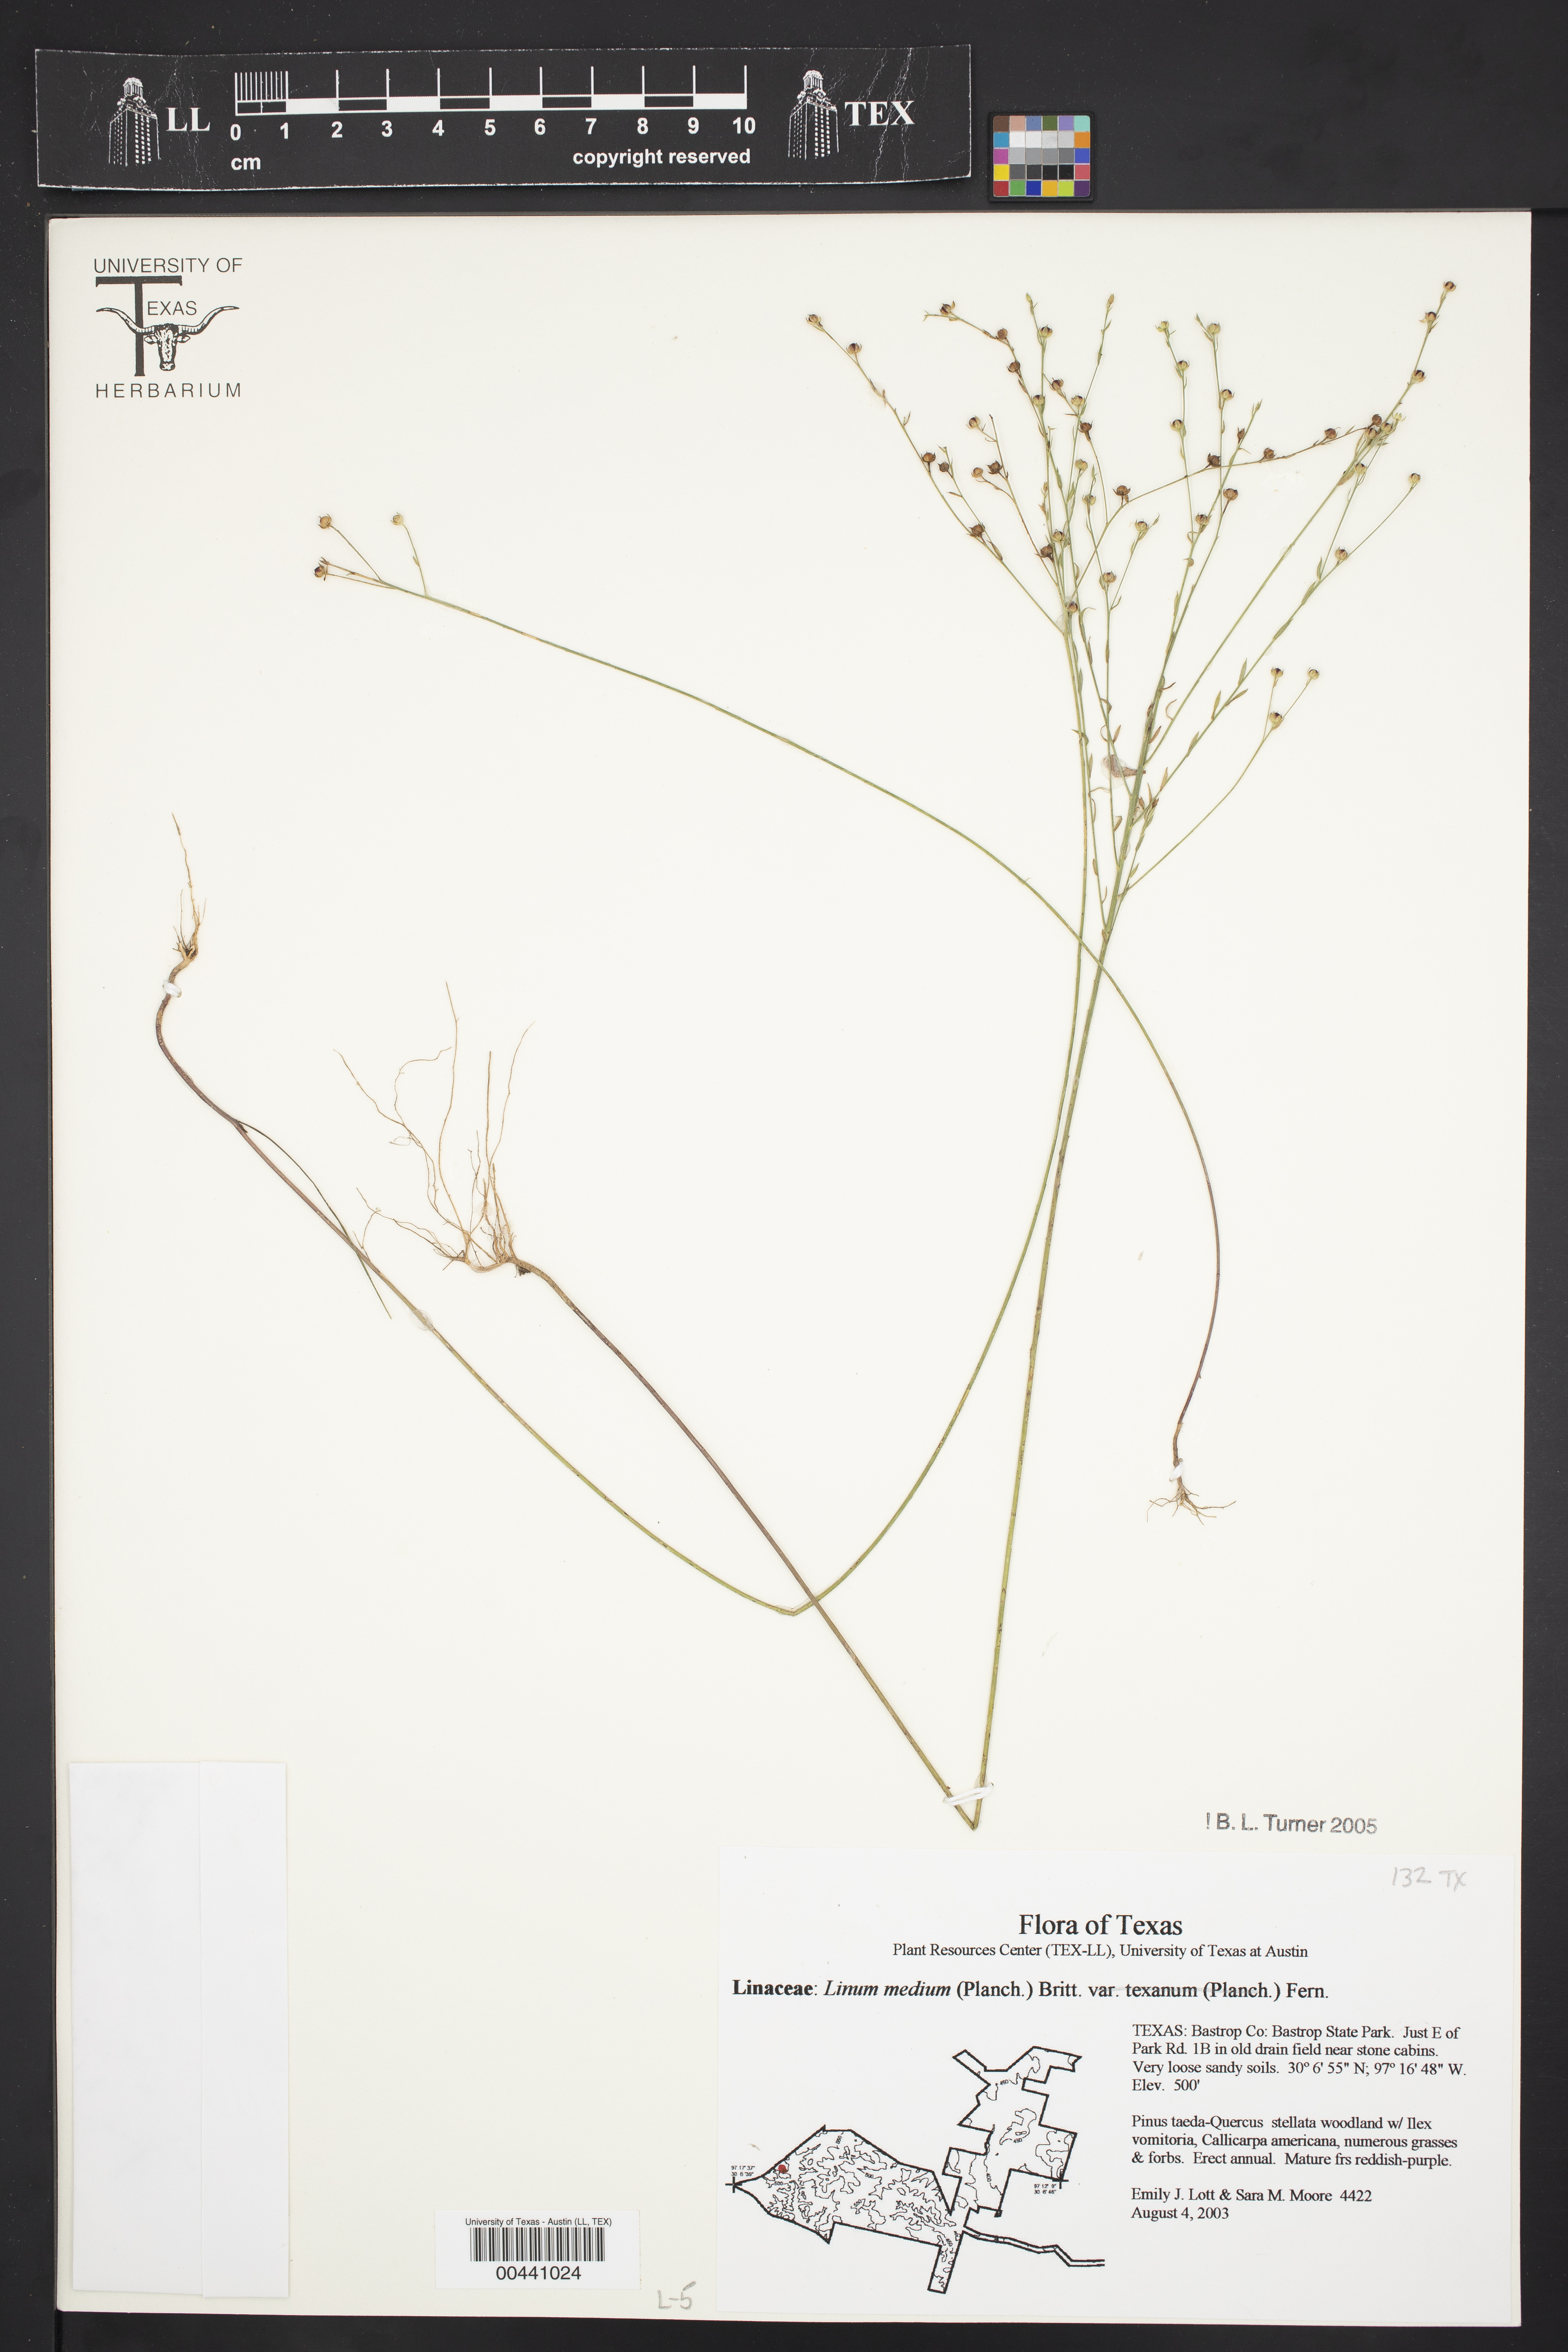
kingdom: Plantae
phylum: Tracheophyta
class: Magnoliopsida
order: Malpighiales
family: Linaceae
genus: Linum
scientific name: Linum medium
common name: Stiff yellow flax
